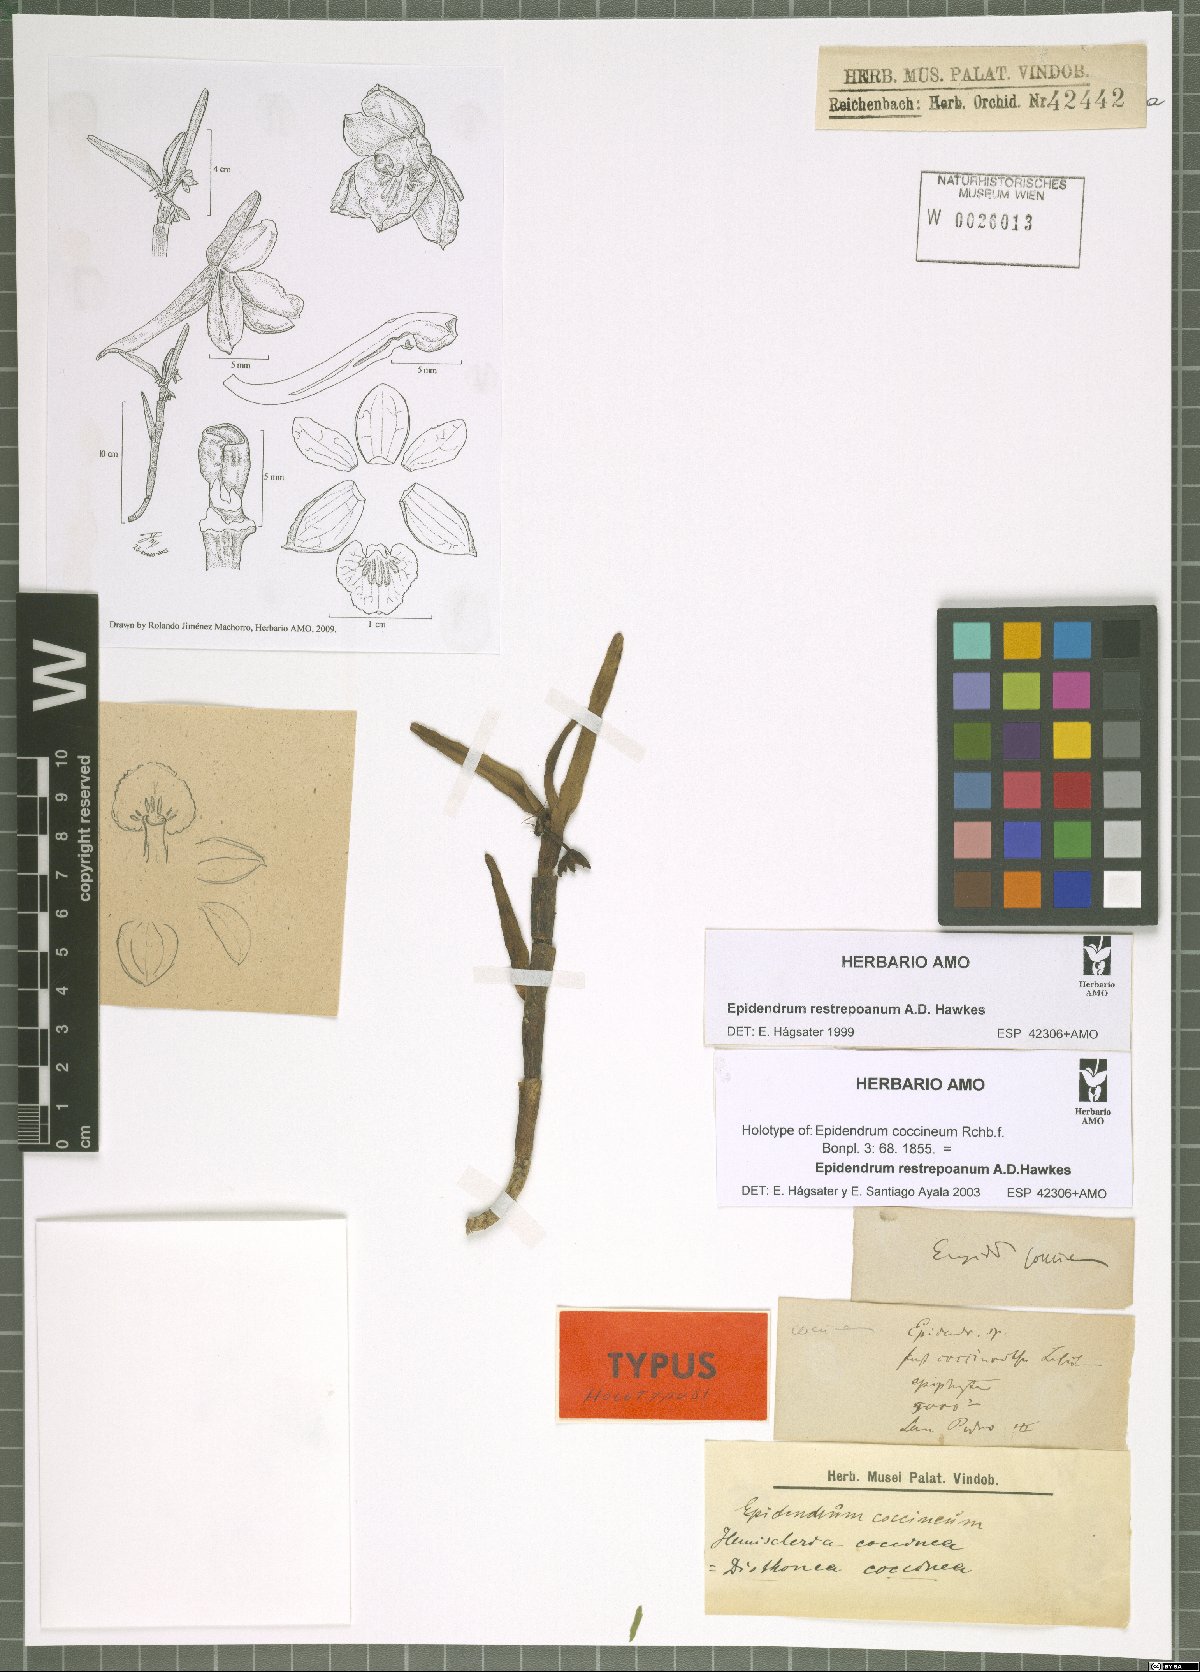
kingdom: Plantae
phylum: Tracheophyta
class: Liliopsida
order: Asparagales
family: Orchidaceae
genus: Epidendrum
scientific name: Epidendrum restrepoanum
